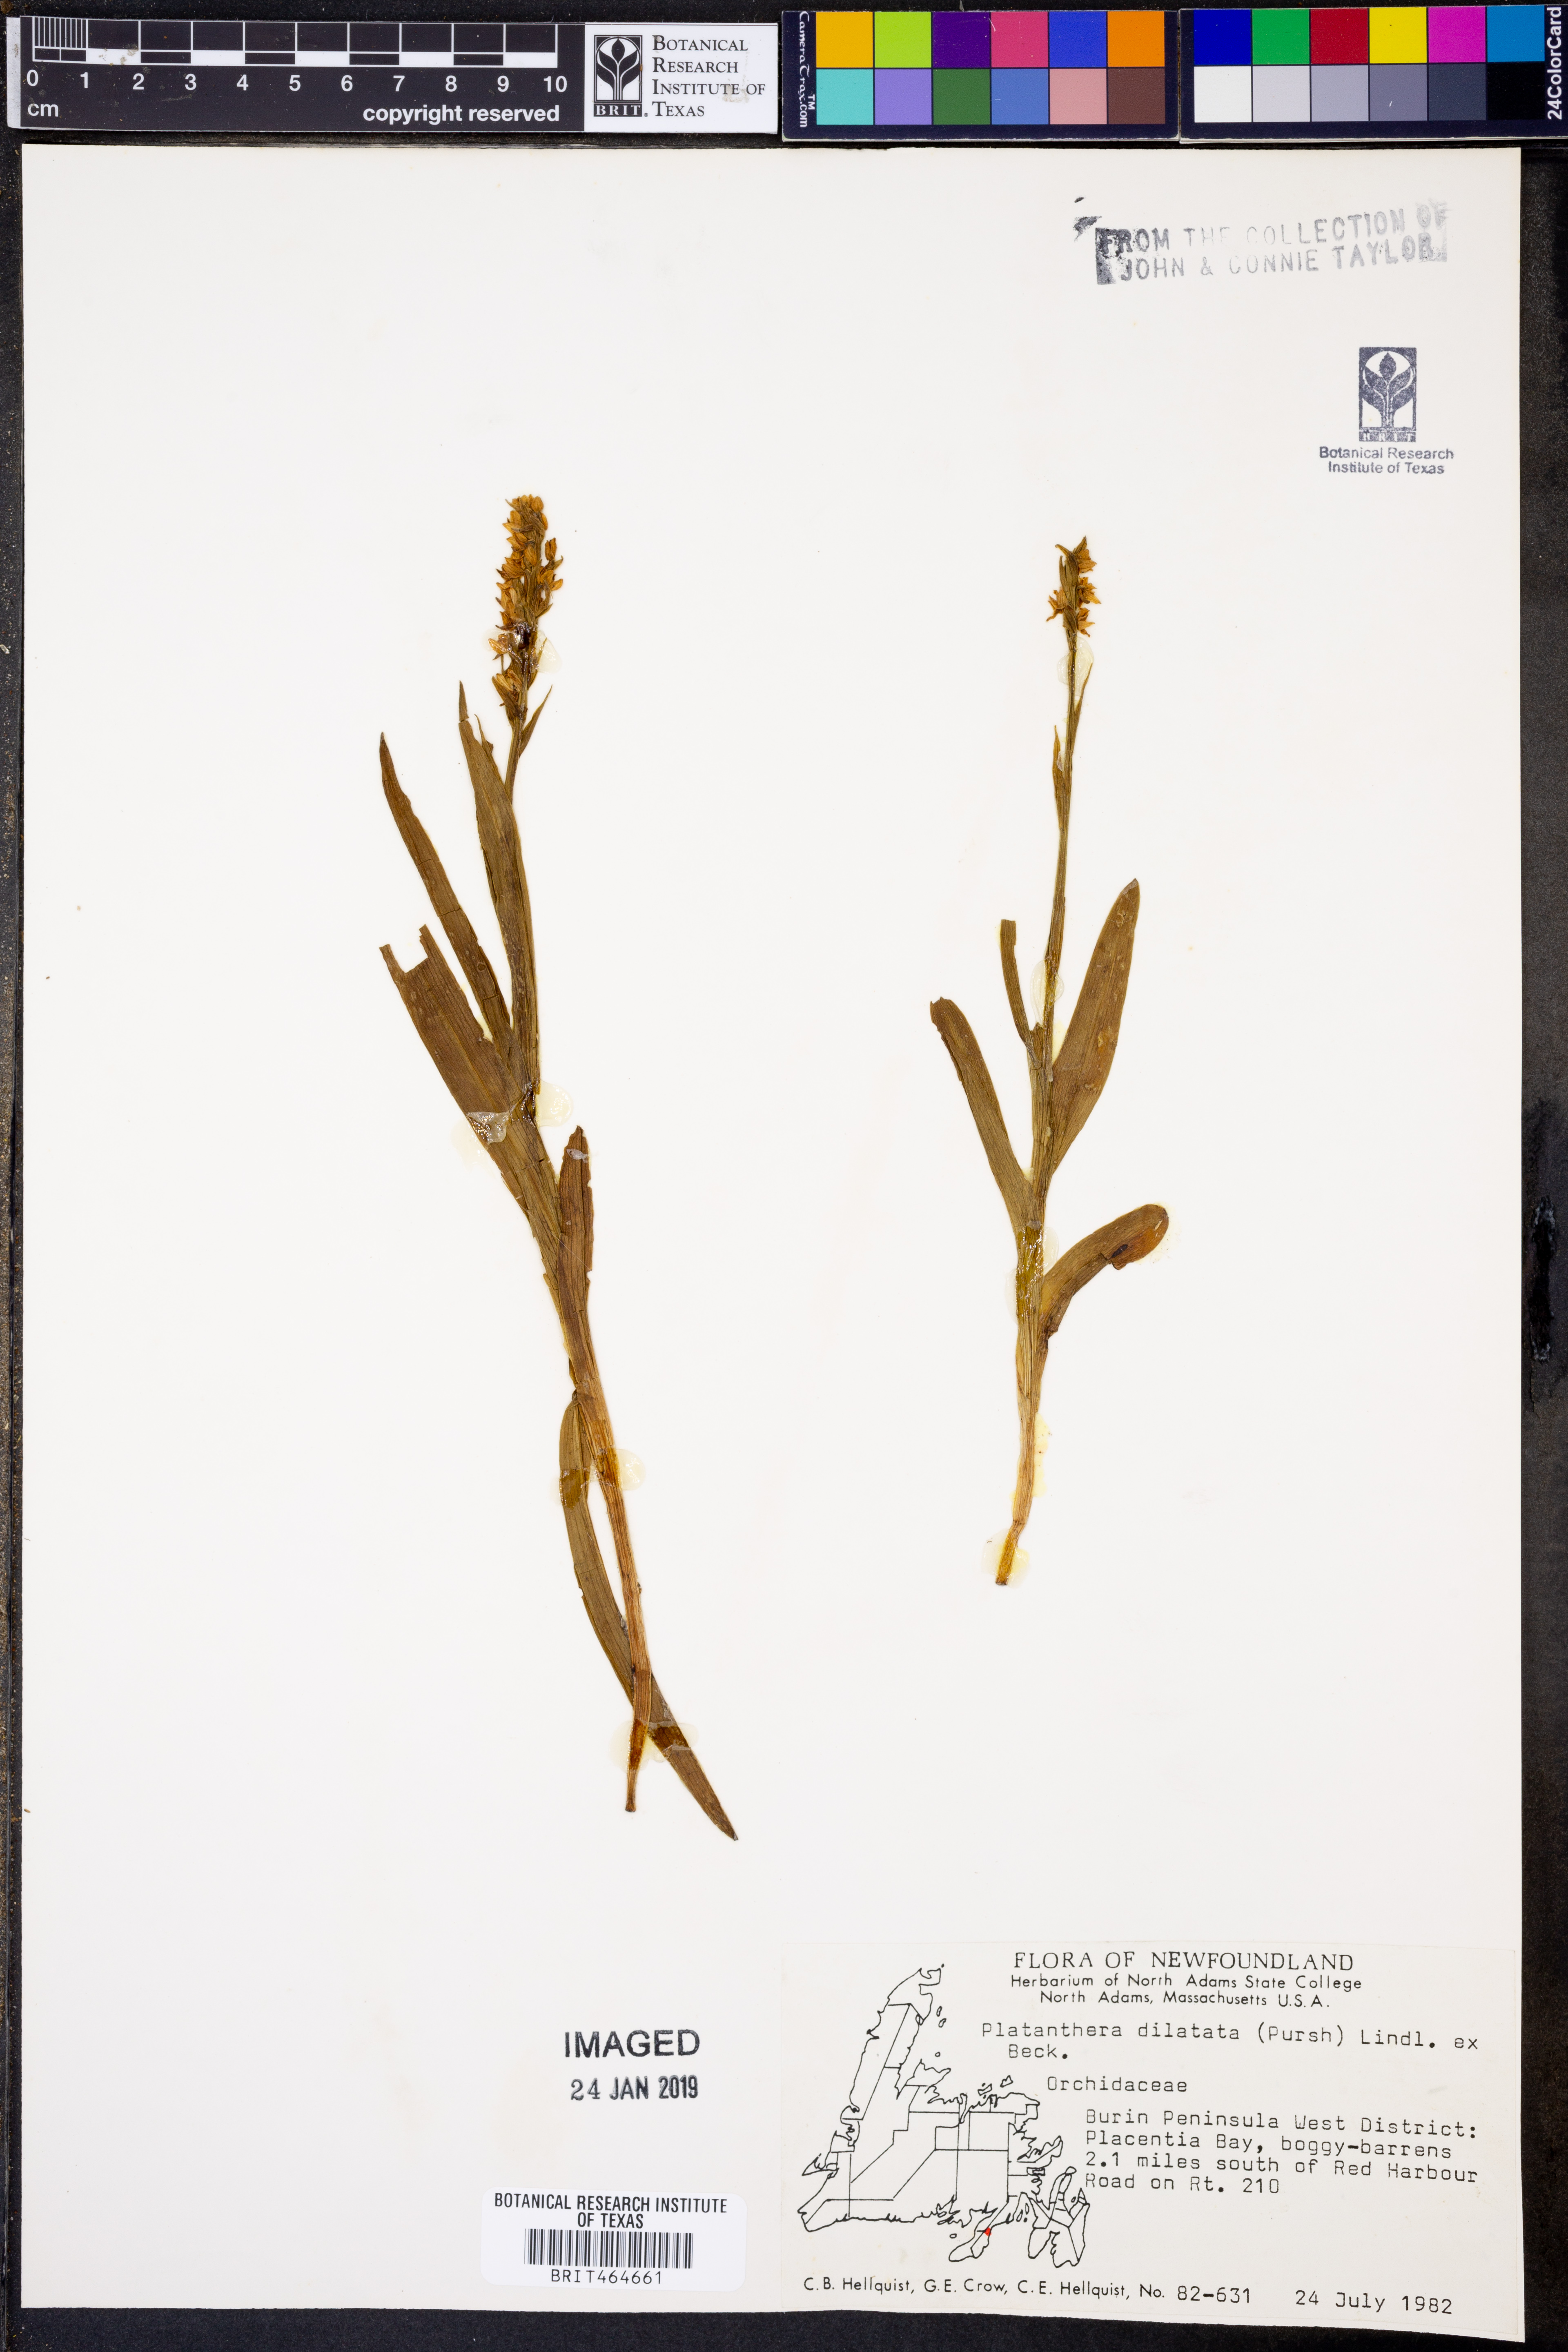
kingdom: Plantae
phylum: Tracheophyta
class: Liliopsida
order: Asparagales
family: Orchidaceae
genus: Platanthera
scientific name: Platanthera dilatata
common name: Bog candles
